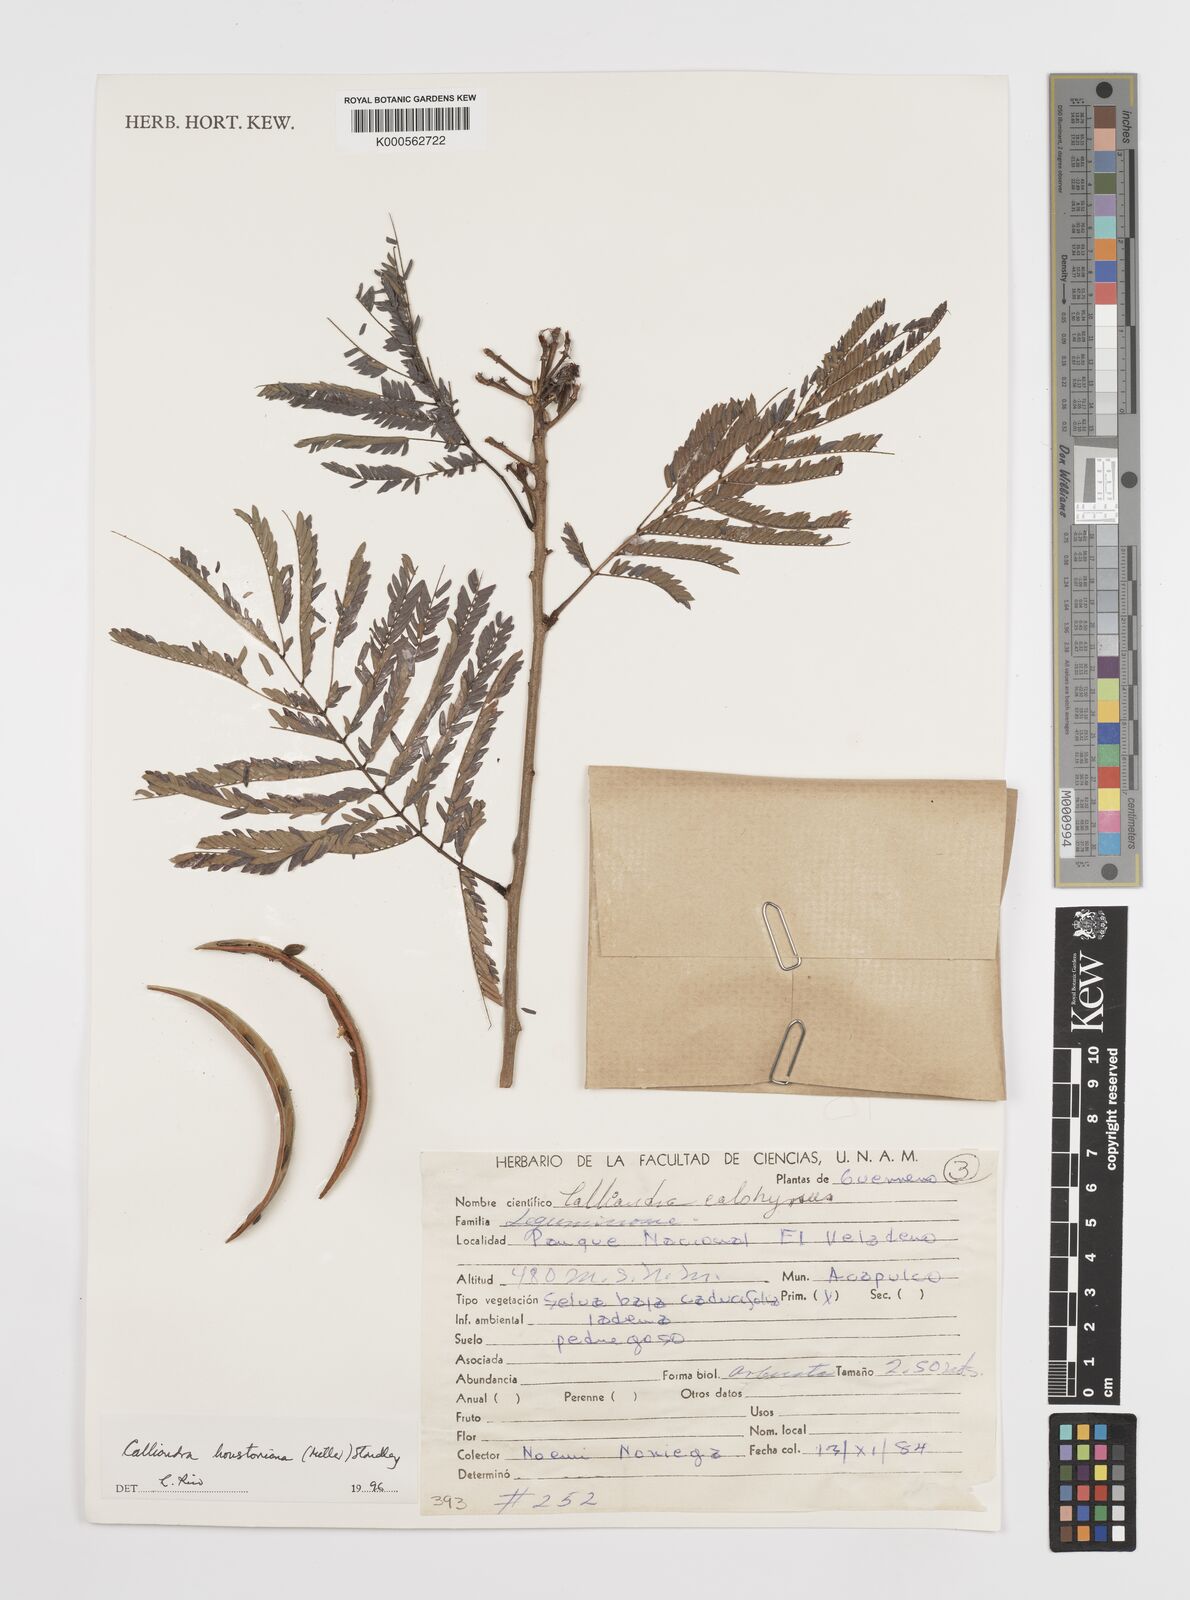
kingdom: Plantae
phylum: Tracheophyta
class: Magnoliopsida
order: Fabales
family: Fabaceae
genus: Calliandra
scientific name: Calliandra houstoniana
